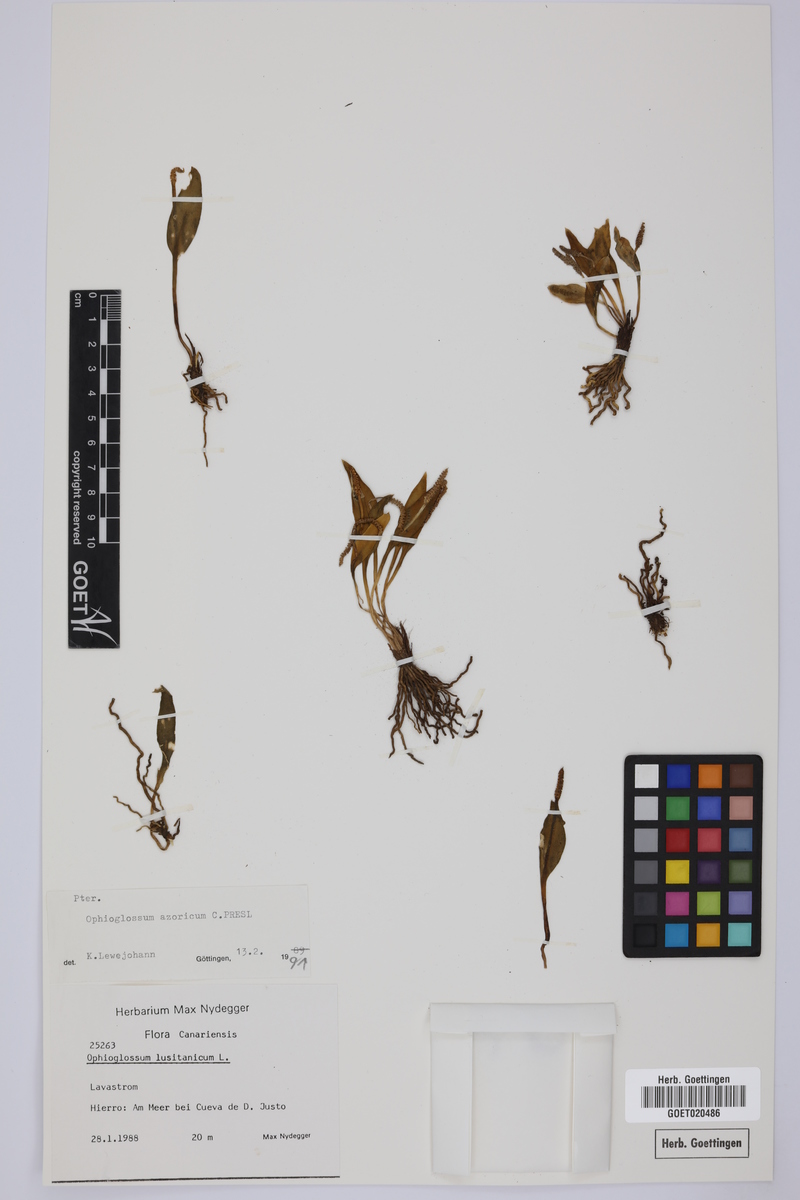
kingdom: Plantae
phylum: Tracheophyta
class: Polypodiopsida
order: Ophioglossales
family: Ophioglossaceae
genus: Ophioglossum
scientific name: Ophioglossum azoricum
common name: Small adder's-tongue
